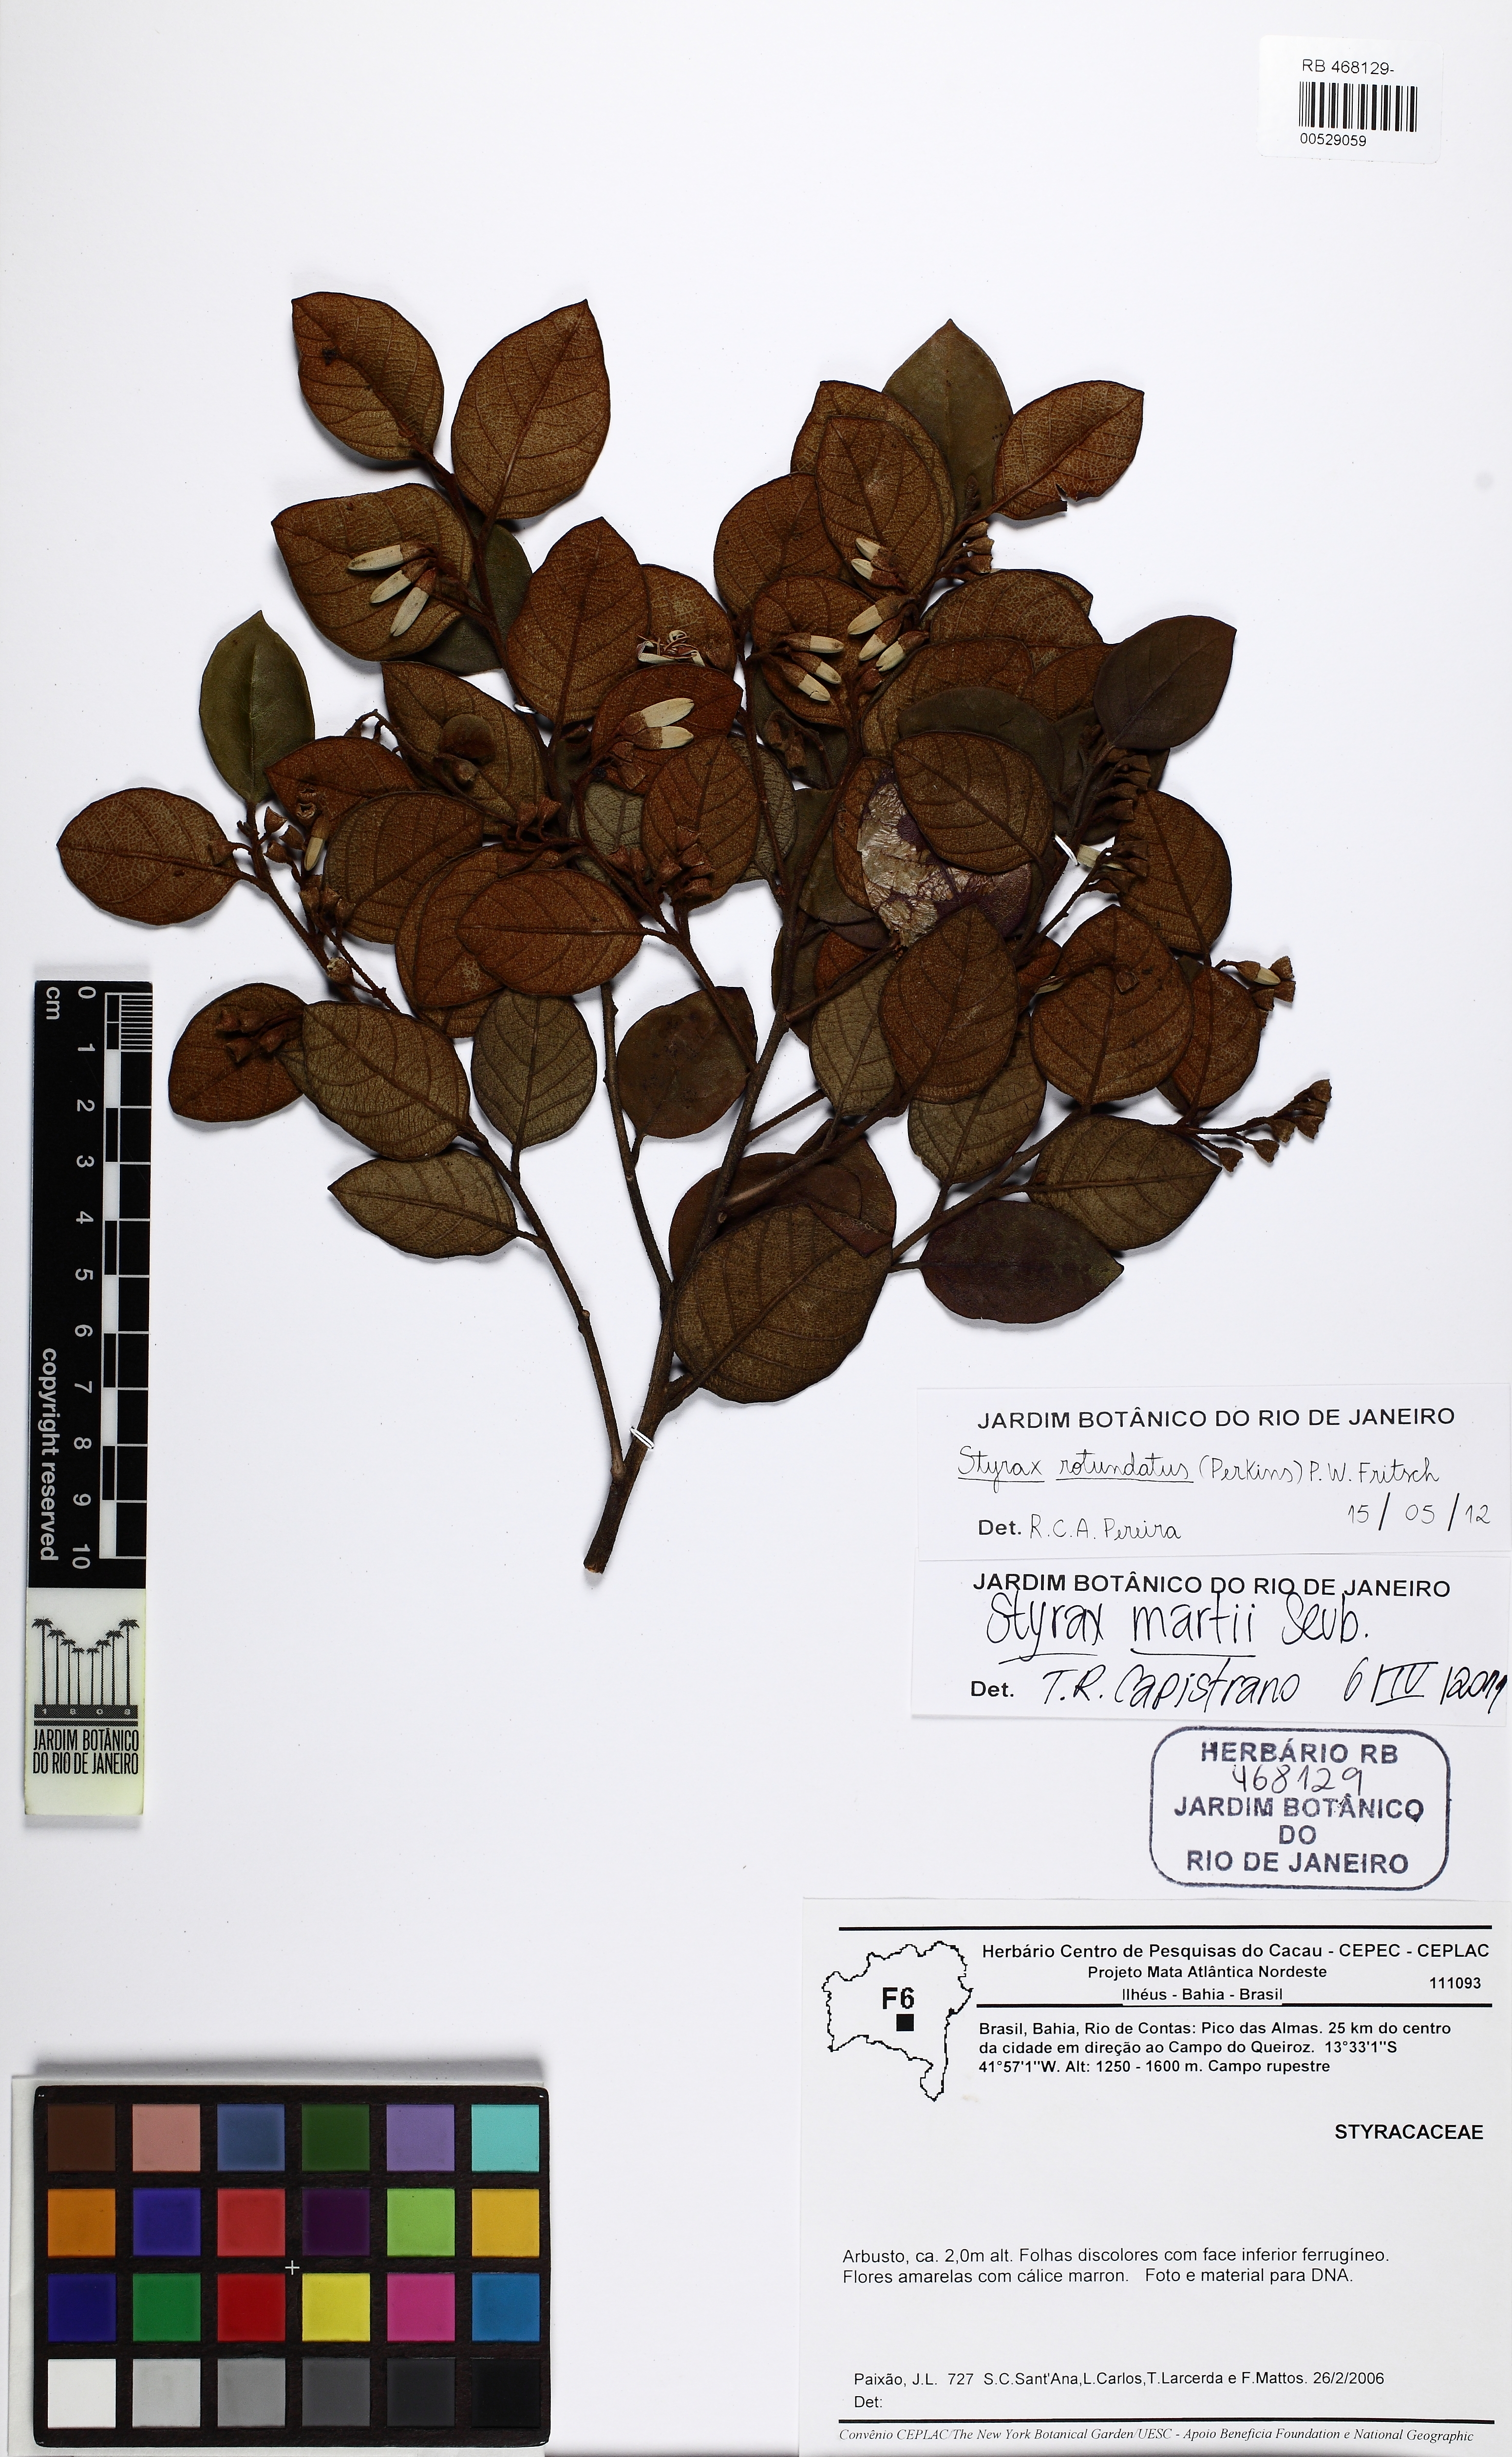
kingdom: Plantae
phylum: Tracheophyta
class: Magnoliopsida
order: Ericales
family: Styracaceae
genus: Styrax
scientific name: Styrax martii
